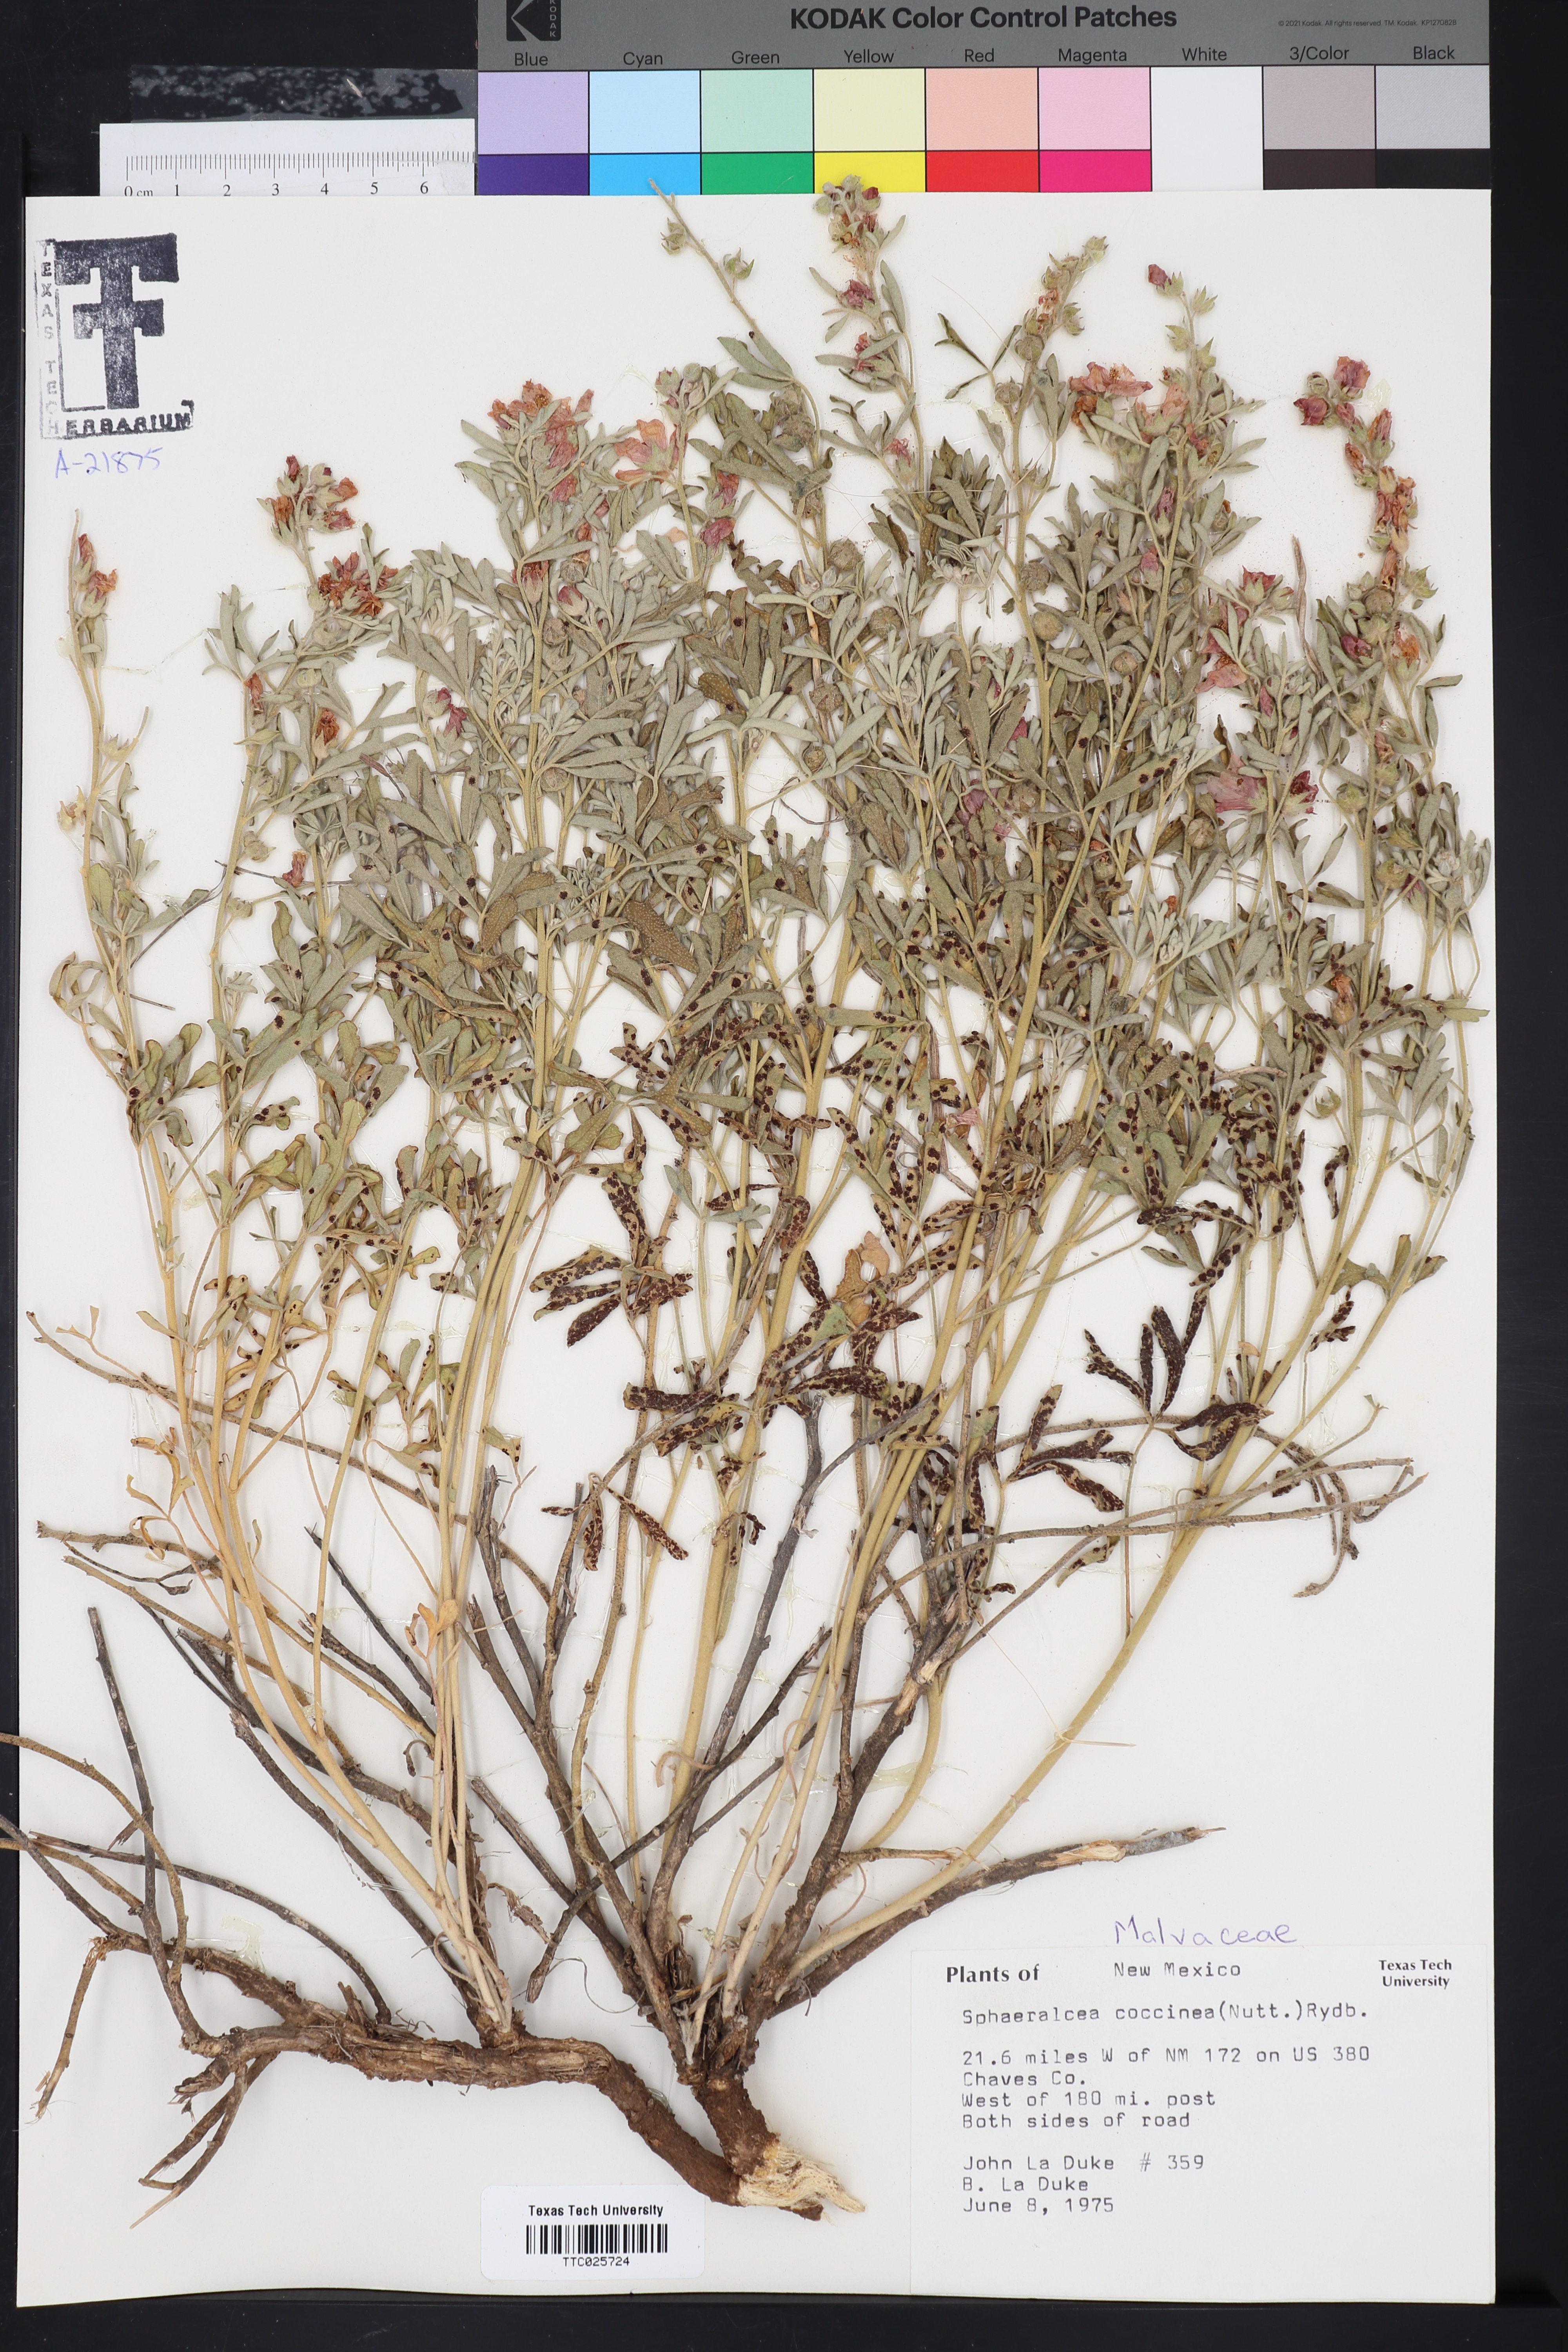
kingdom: Plantae
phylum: Tracheophyta
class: Magnoliopsida
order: Malvales
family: Malvaceae
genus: Sphaeralcea
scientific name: Sphaeralcea coccinea
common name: Moss-rose
